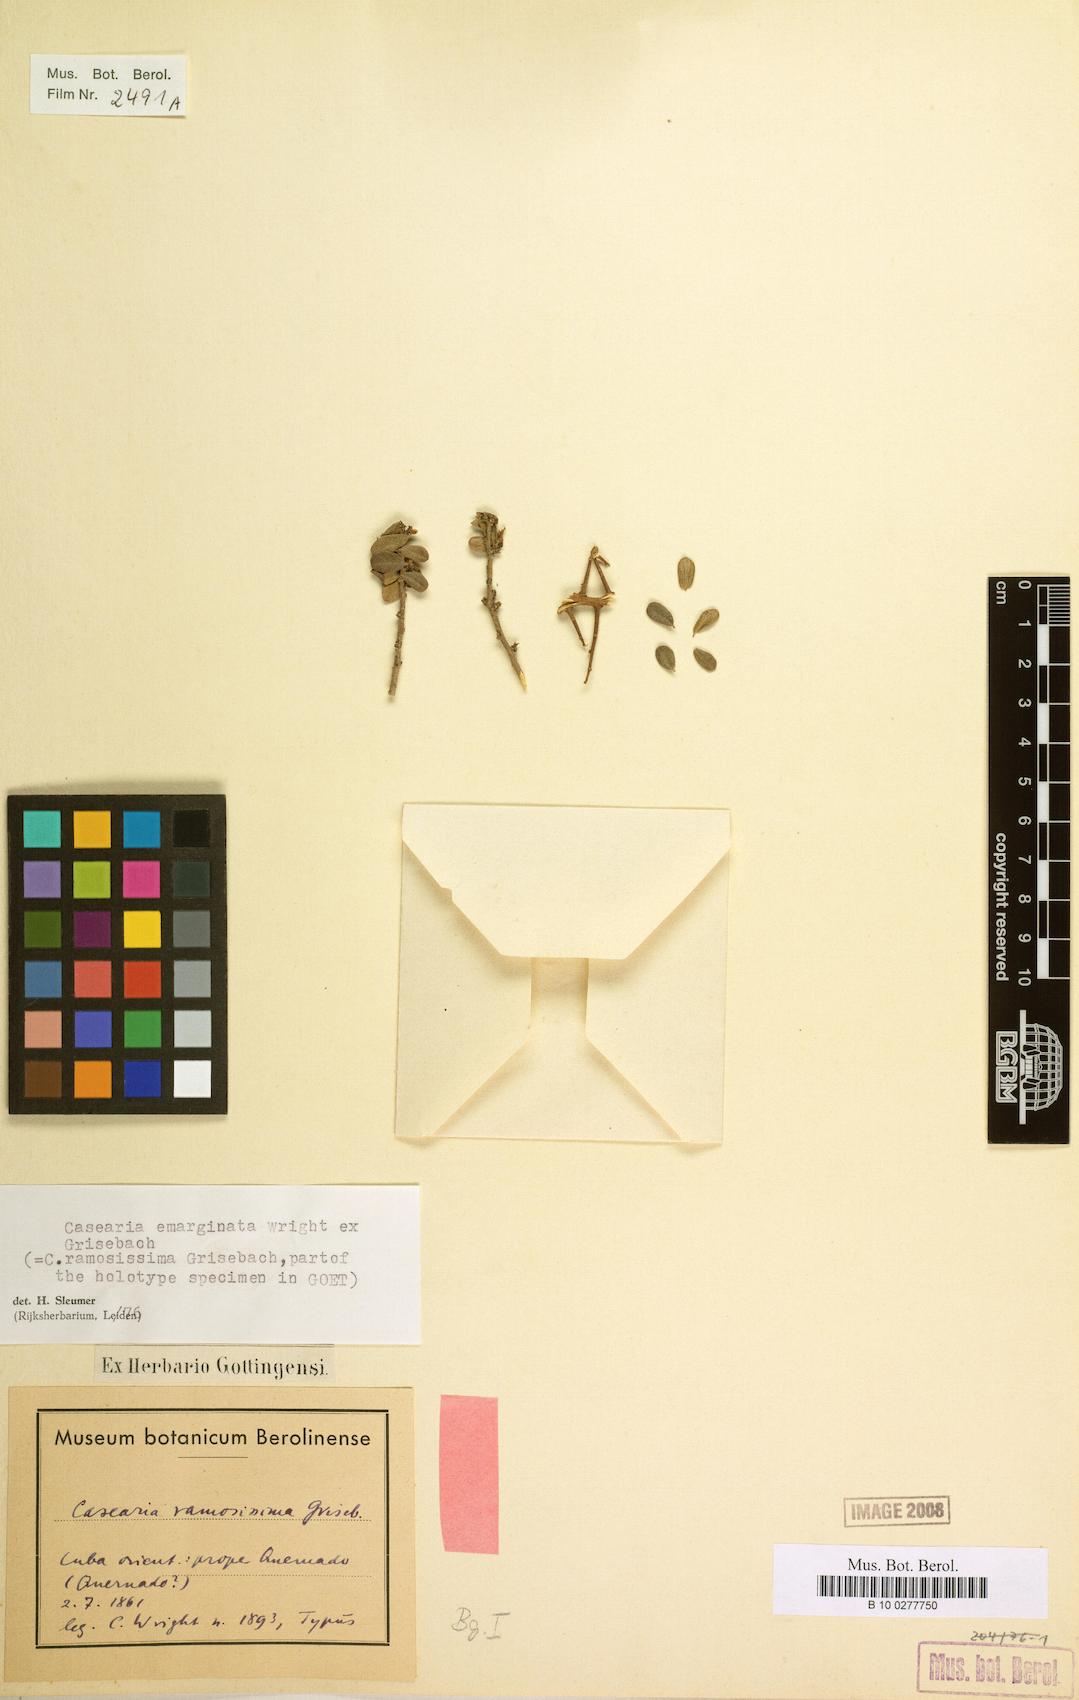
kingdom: Plantae
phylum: Tracheophyta
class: Magnoliopsida
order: Malpighiales
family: Salicaceae
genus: Casearia
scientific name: Casearia emarginata
